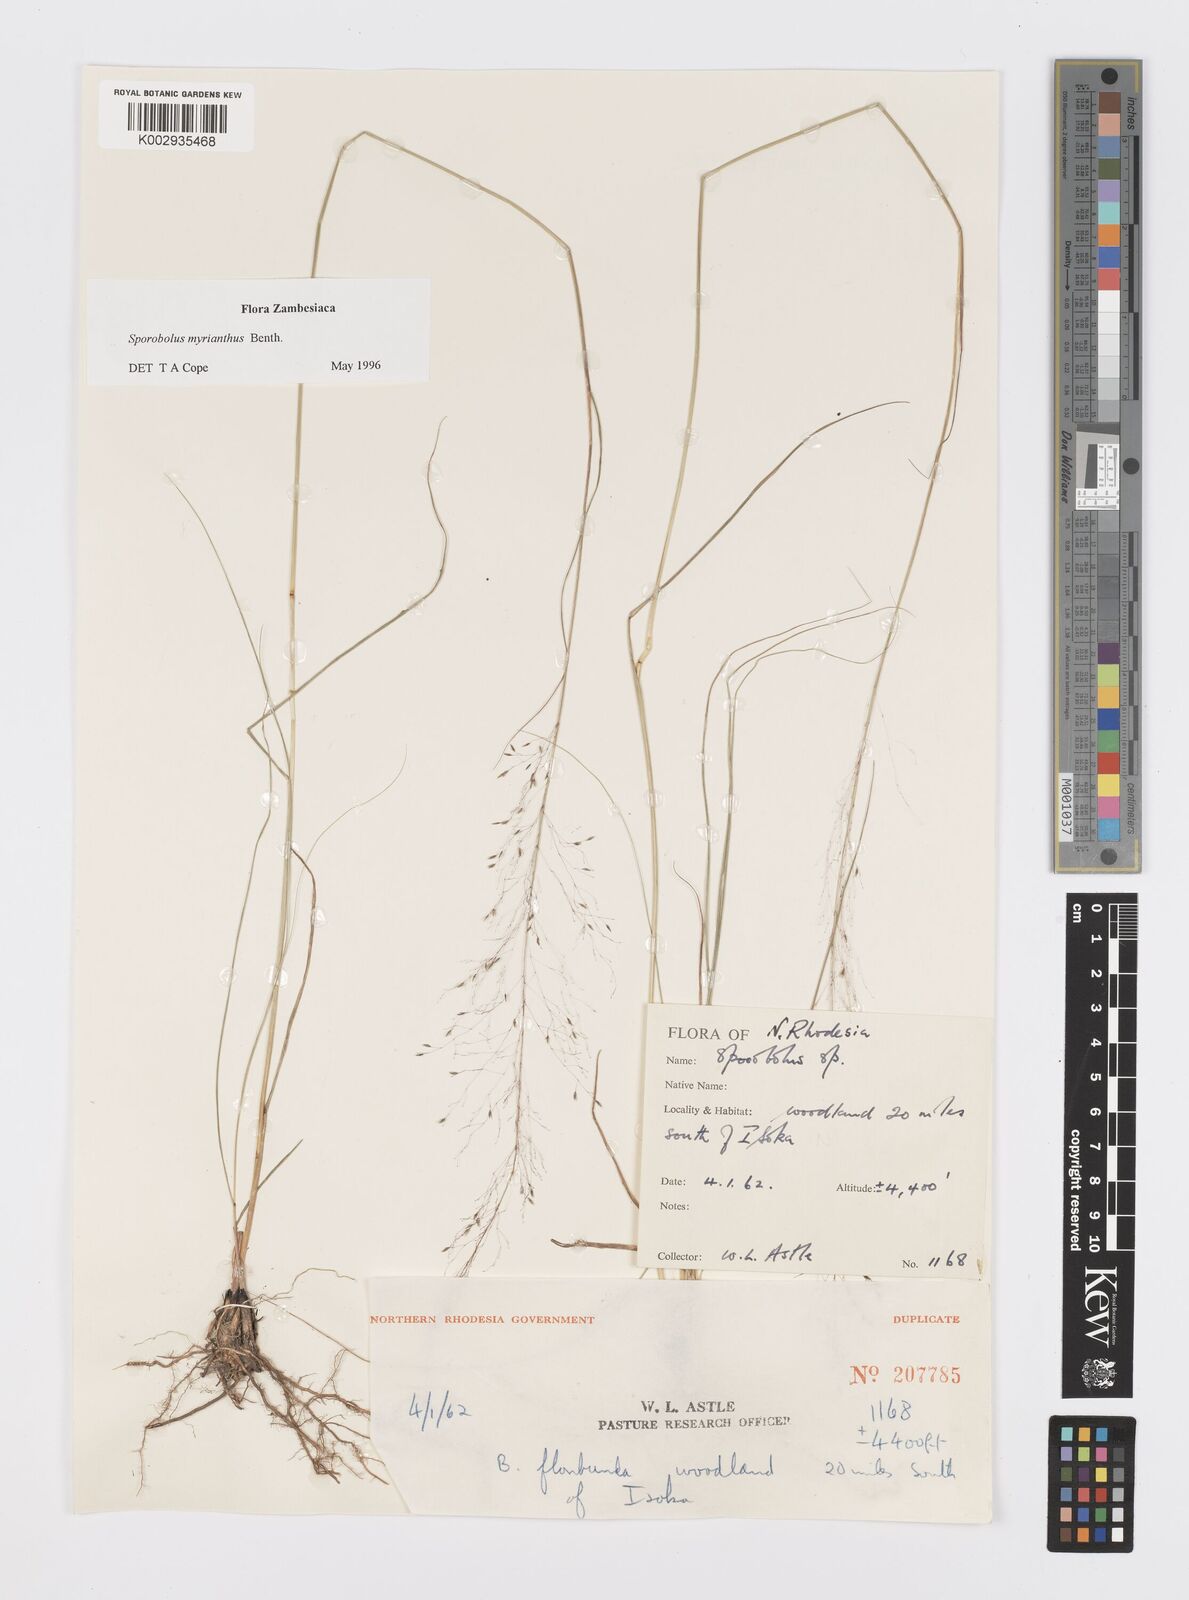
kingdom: Plantae
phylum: Tracheophyta
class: Liliopsida
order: Poales
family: Poaceae
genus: Sporobolus
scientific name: Sporobolus myrianthus
